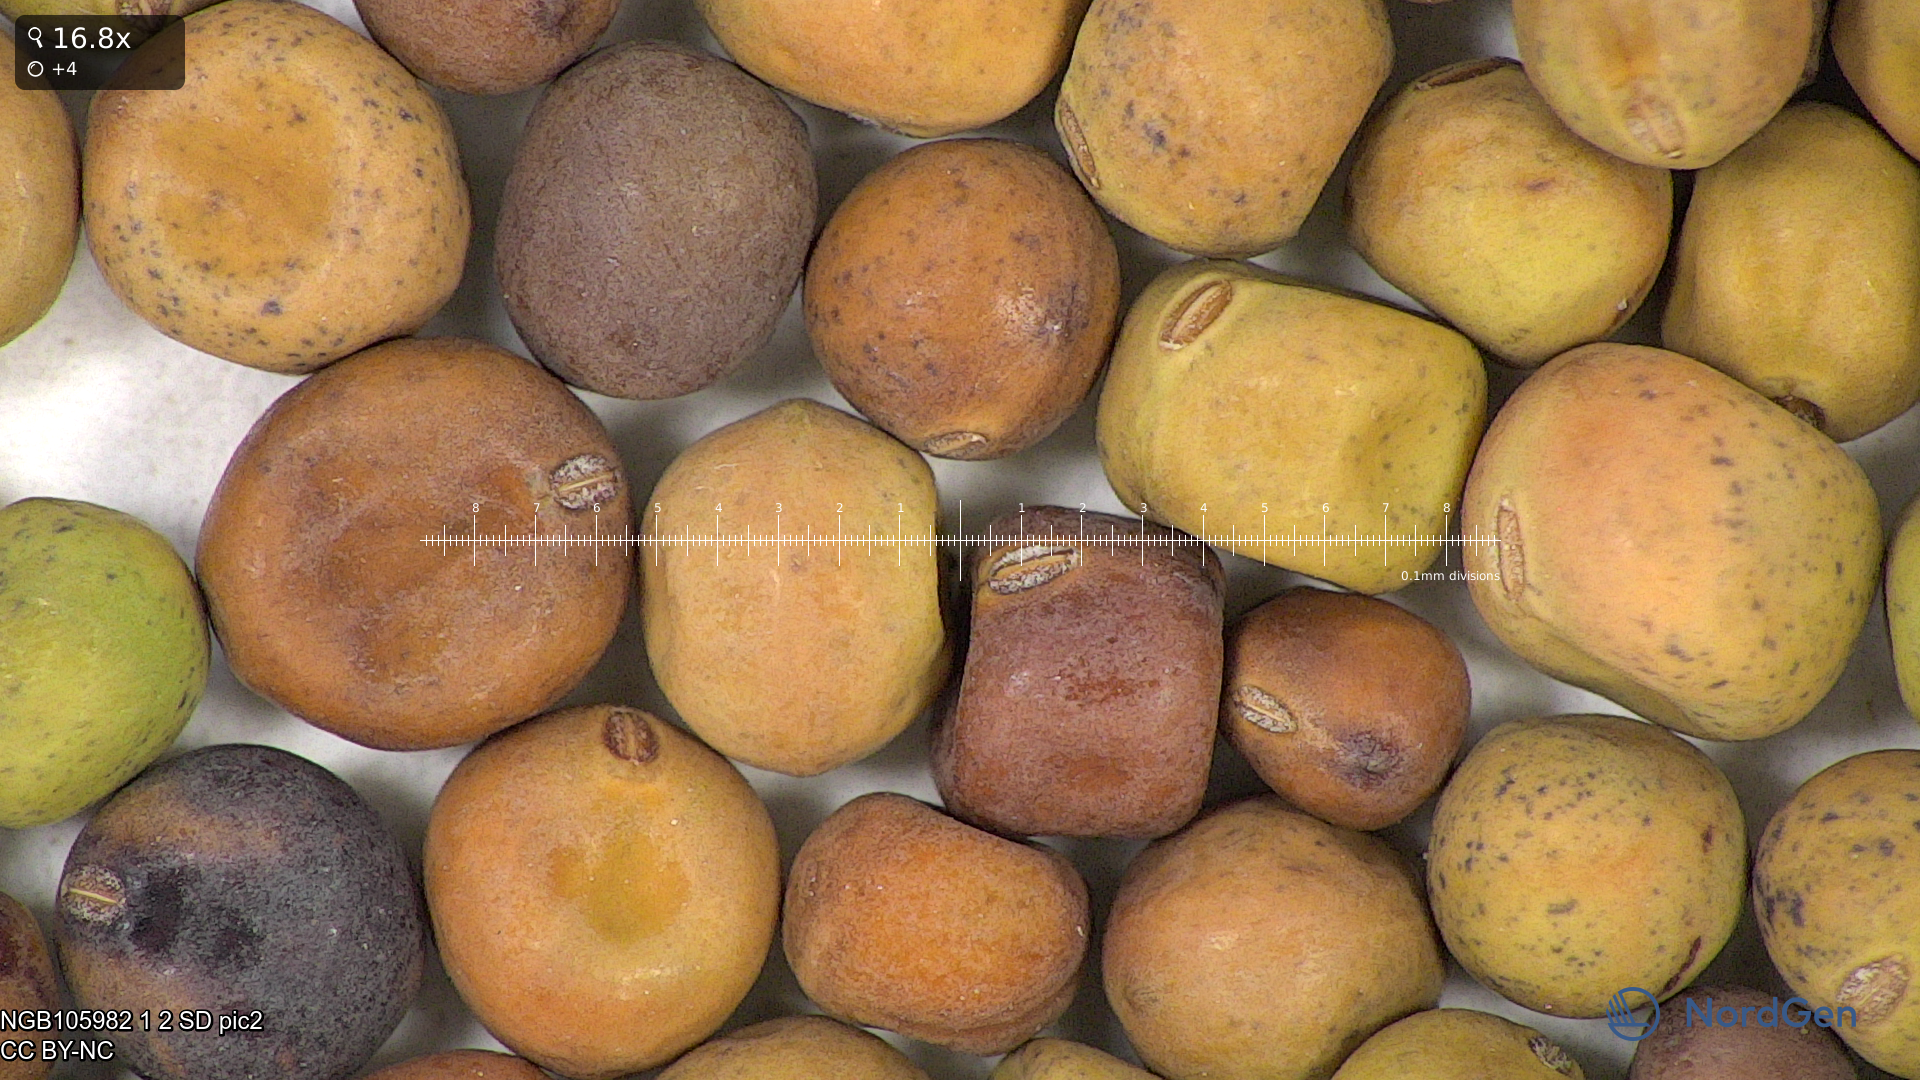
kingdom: Plantae
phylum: Tracheophyta
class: Magnoliopsida
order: Fabales
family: Fabaceae
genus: Lathyrus
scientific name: Lathyrus oleraceus
